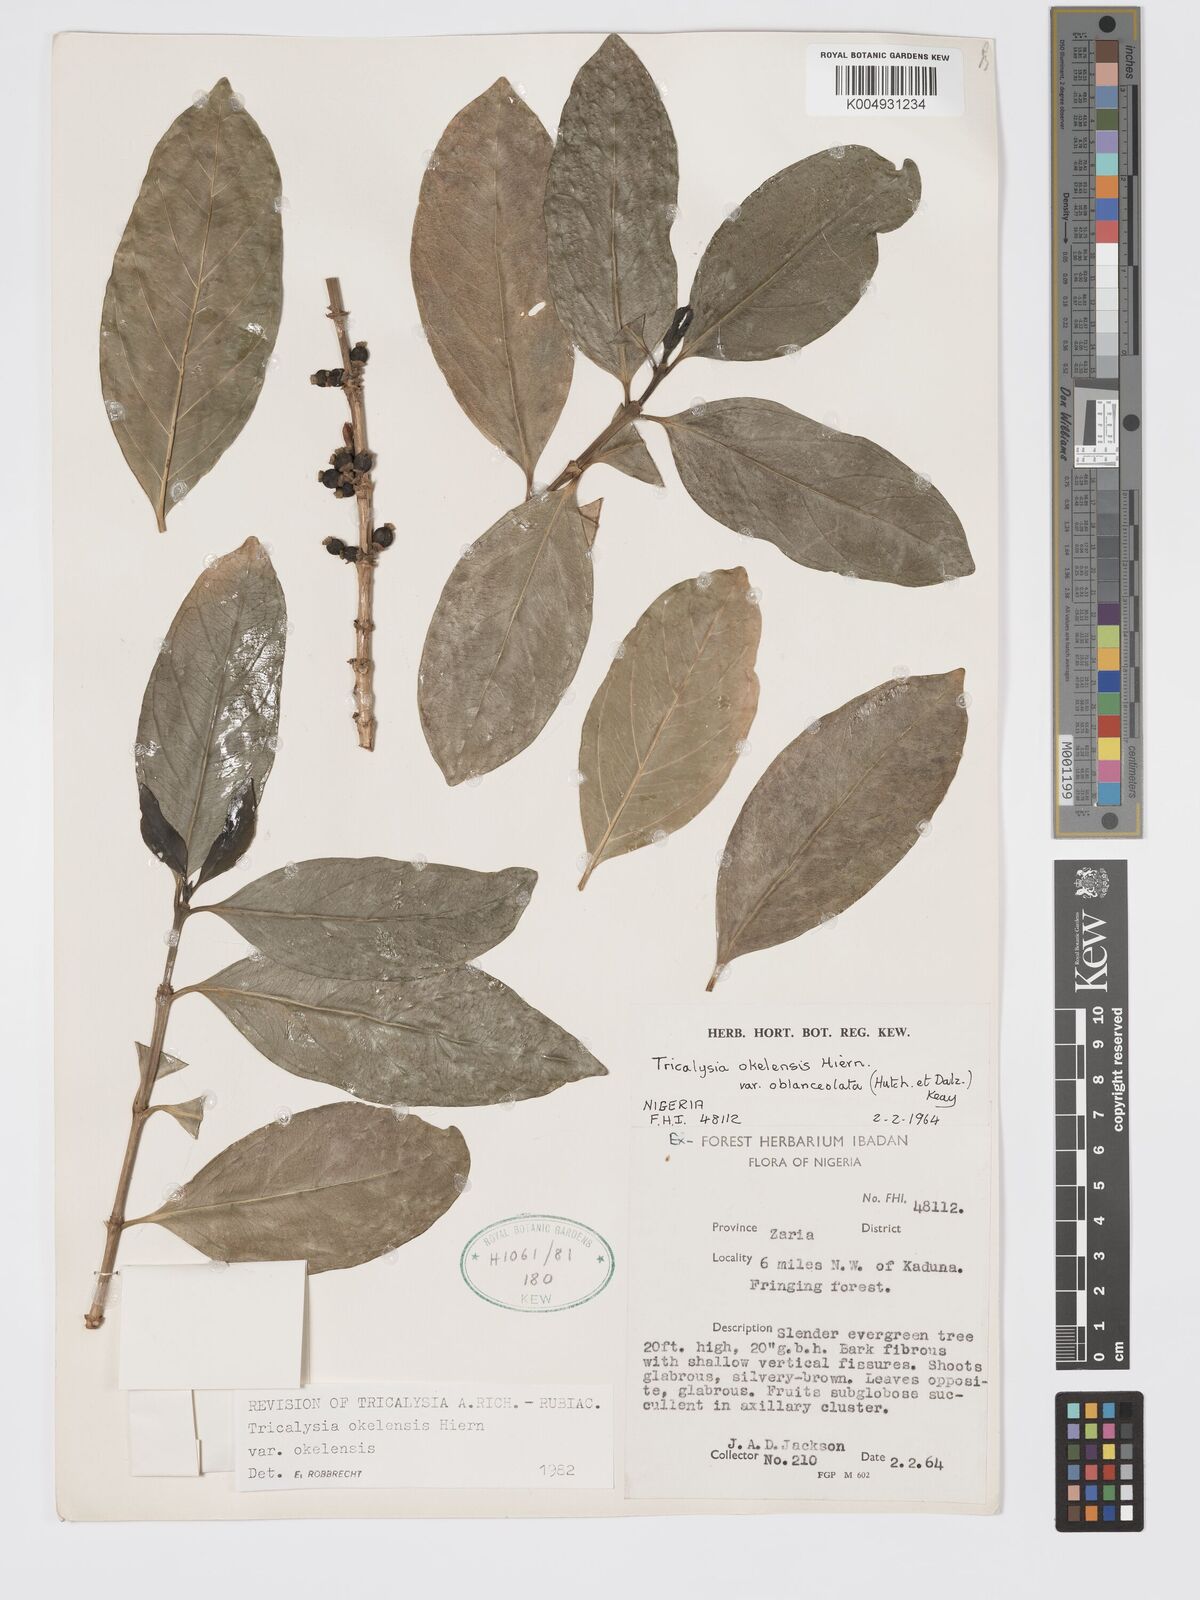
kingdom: Plantae
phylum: Tracheophyta
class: Magnoliopsida
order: Gentianales
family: Rubiaceae
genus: Tricalysia
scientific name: Tricalysia okelensis
